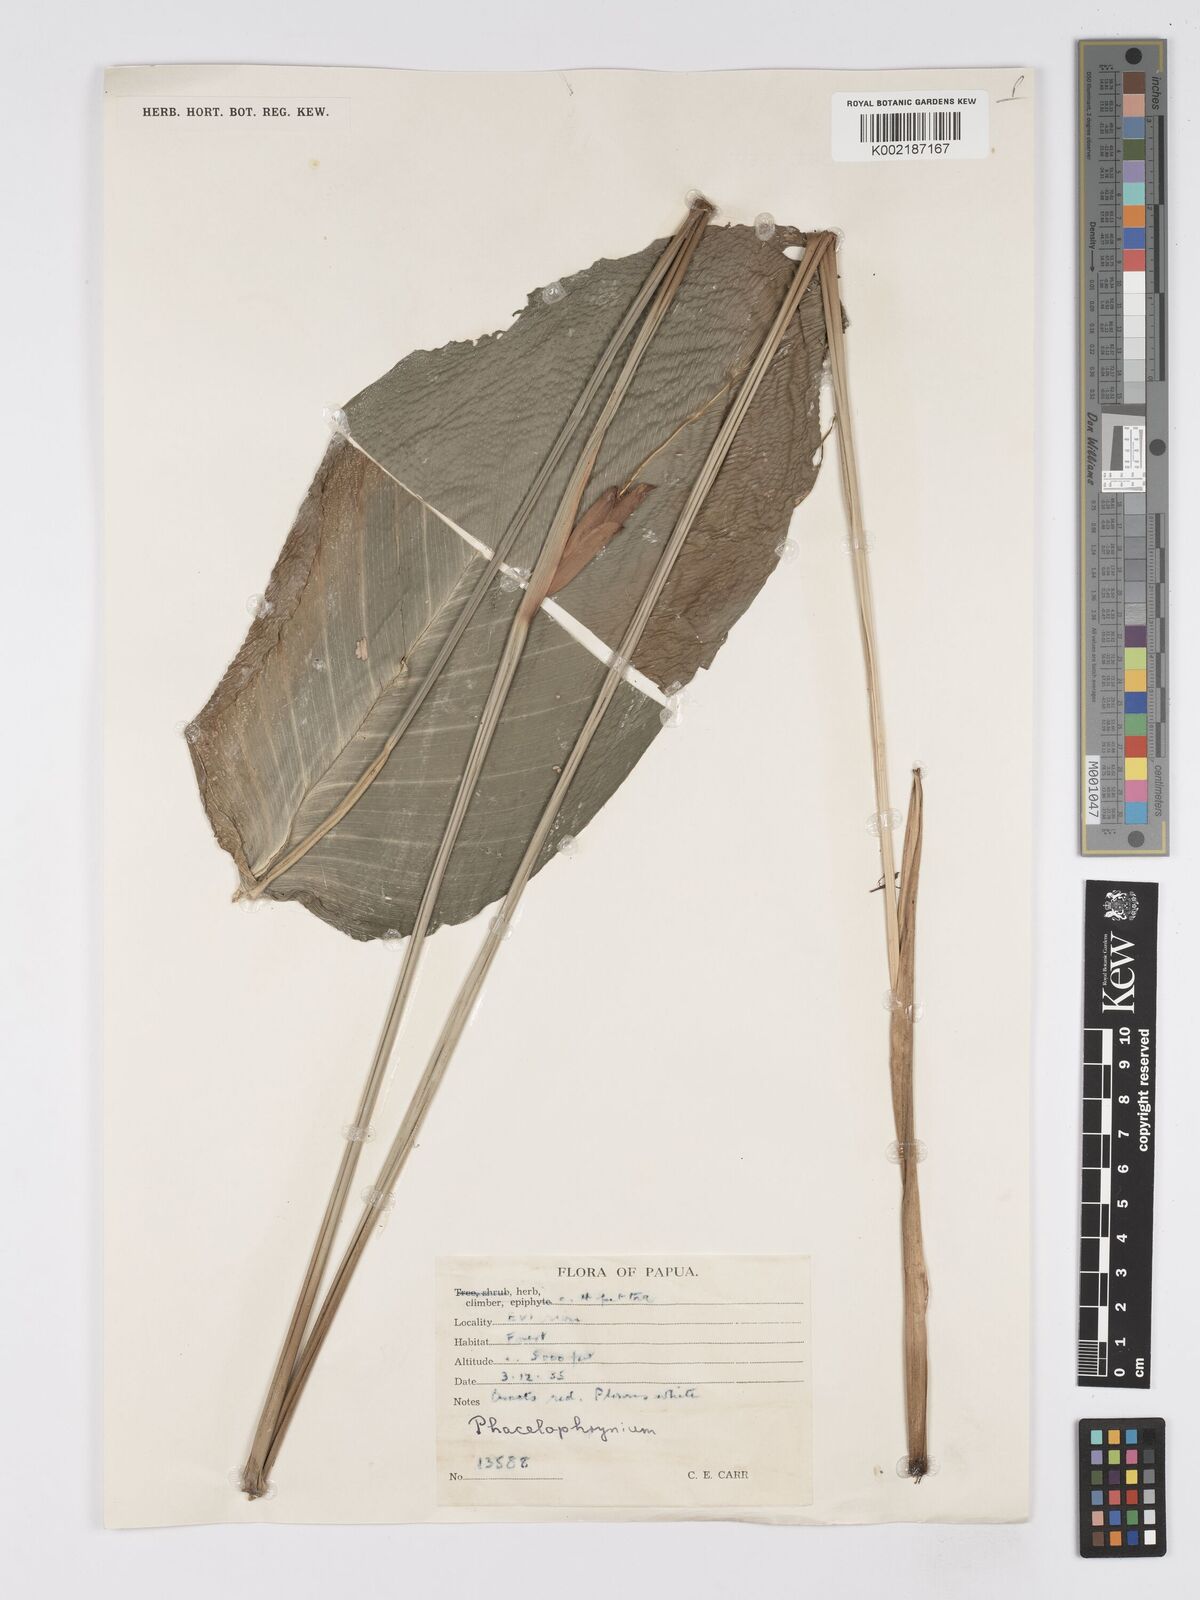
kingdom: Plantae
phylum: Tracheophyta
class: Liliopsida
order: Zingiberales
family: Marantaceae
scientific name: Marantaceae
